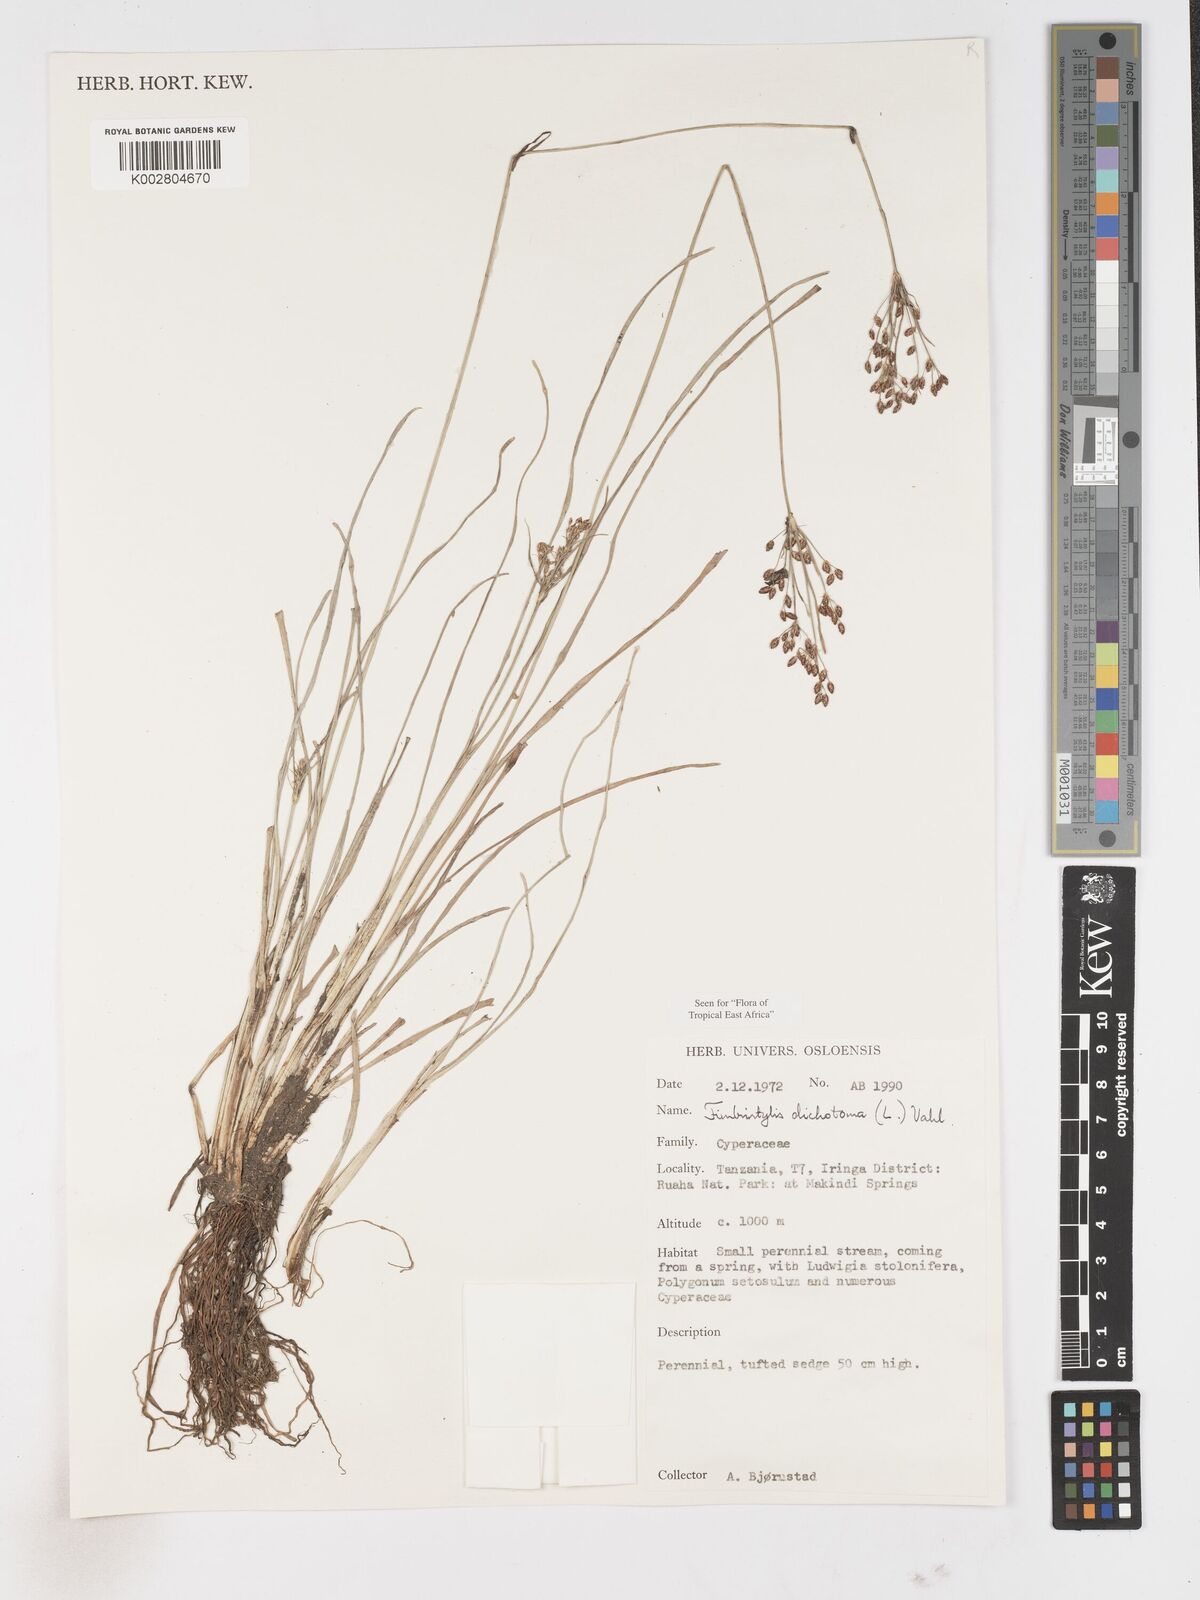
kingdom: Plantae
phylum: Tracheophyta
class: Liliopsida
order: Poales
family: Cyperaceae
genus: Fimbristylis
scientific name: Fimbristylis dichotoma
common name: Forked fimbry
